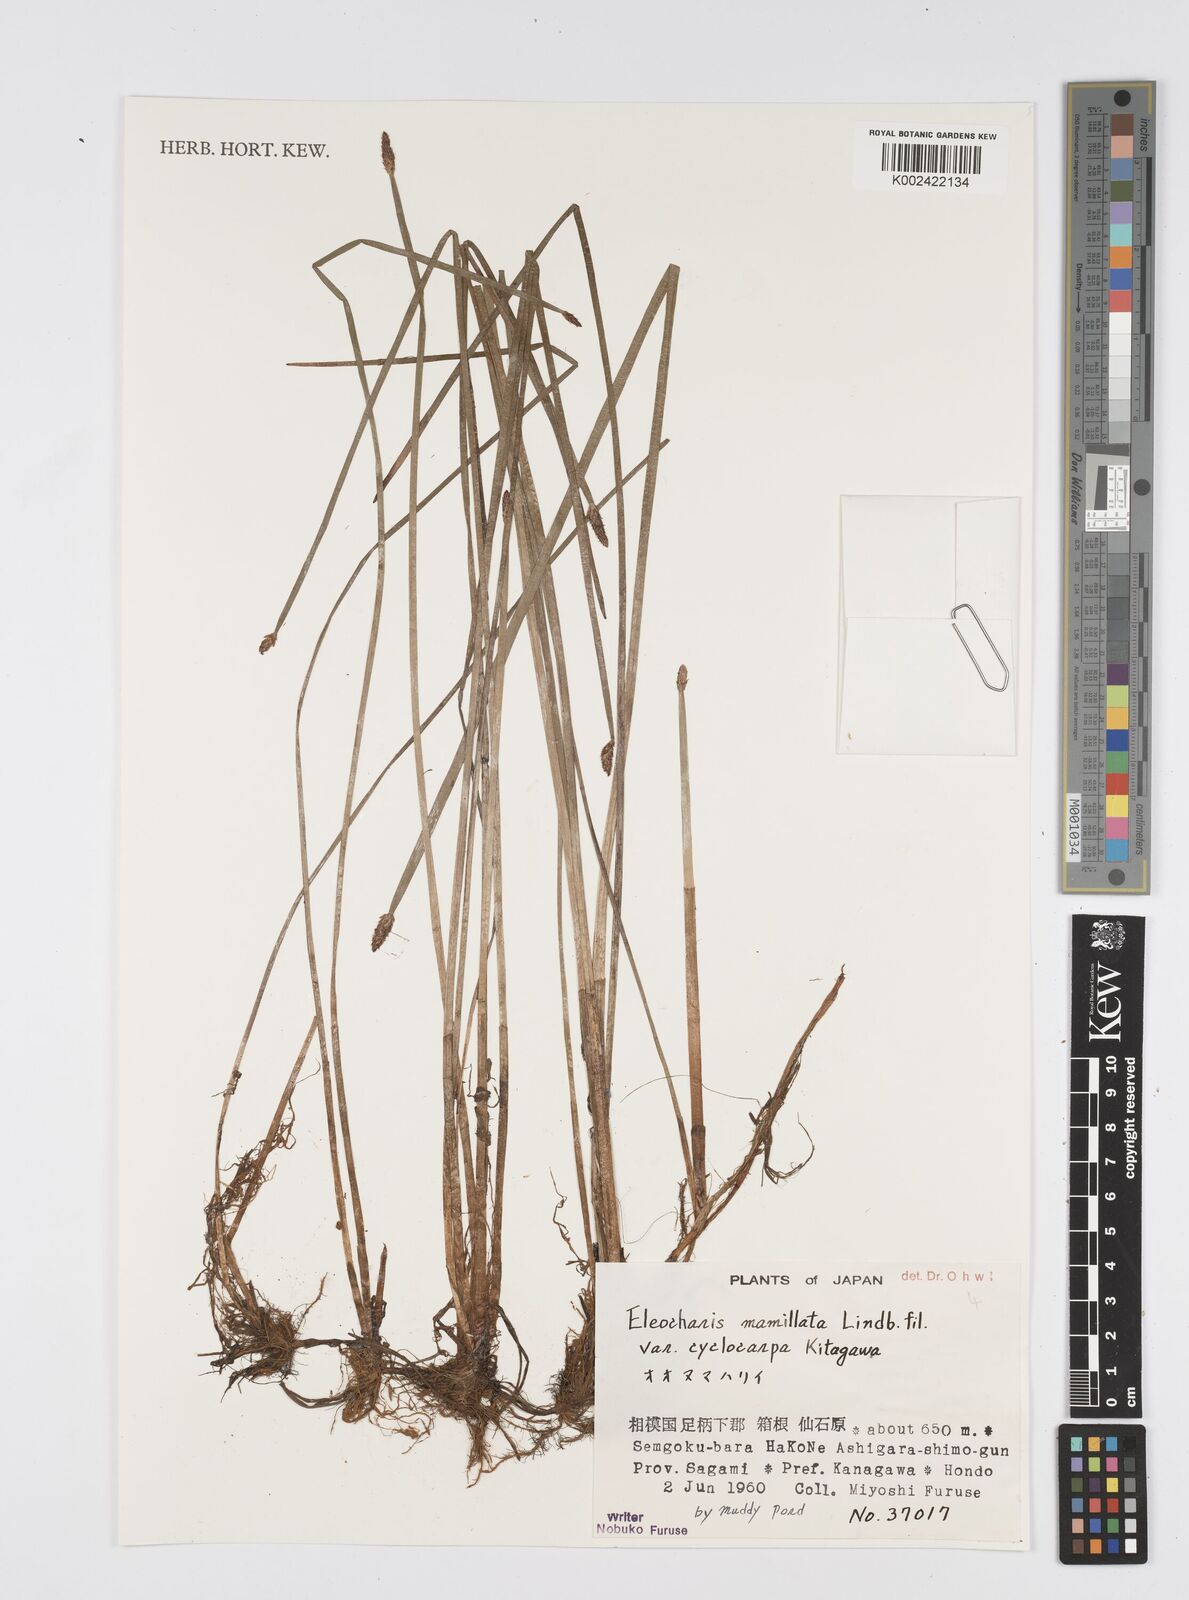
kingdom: Plantae
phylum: Tracheophyta
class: Liliopsida
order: Poales
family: Cyperaceae
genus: Eleocharis
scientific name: Eleocharis mamillata
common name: Northern spike-rush
